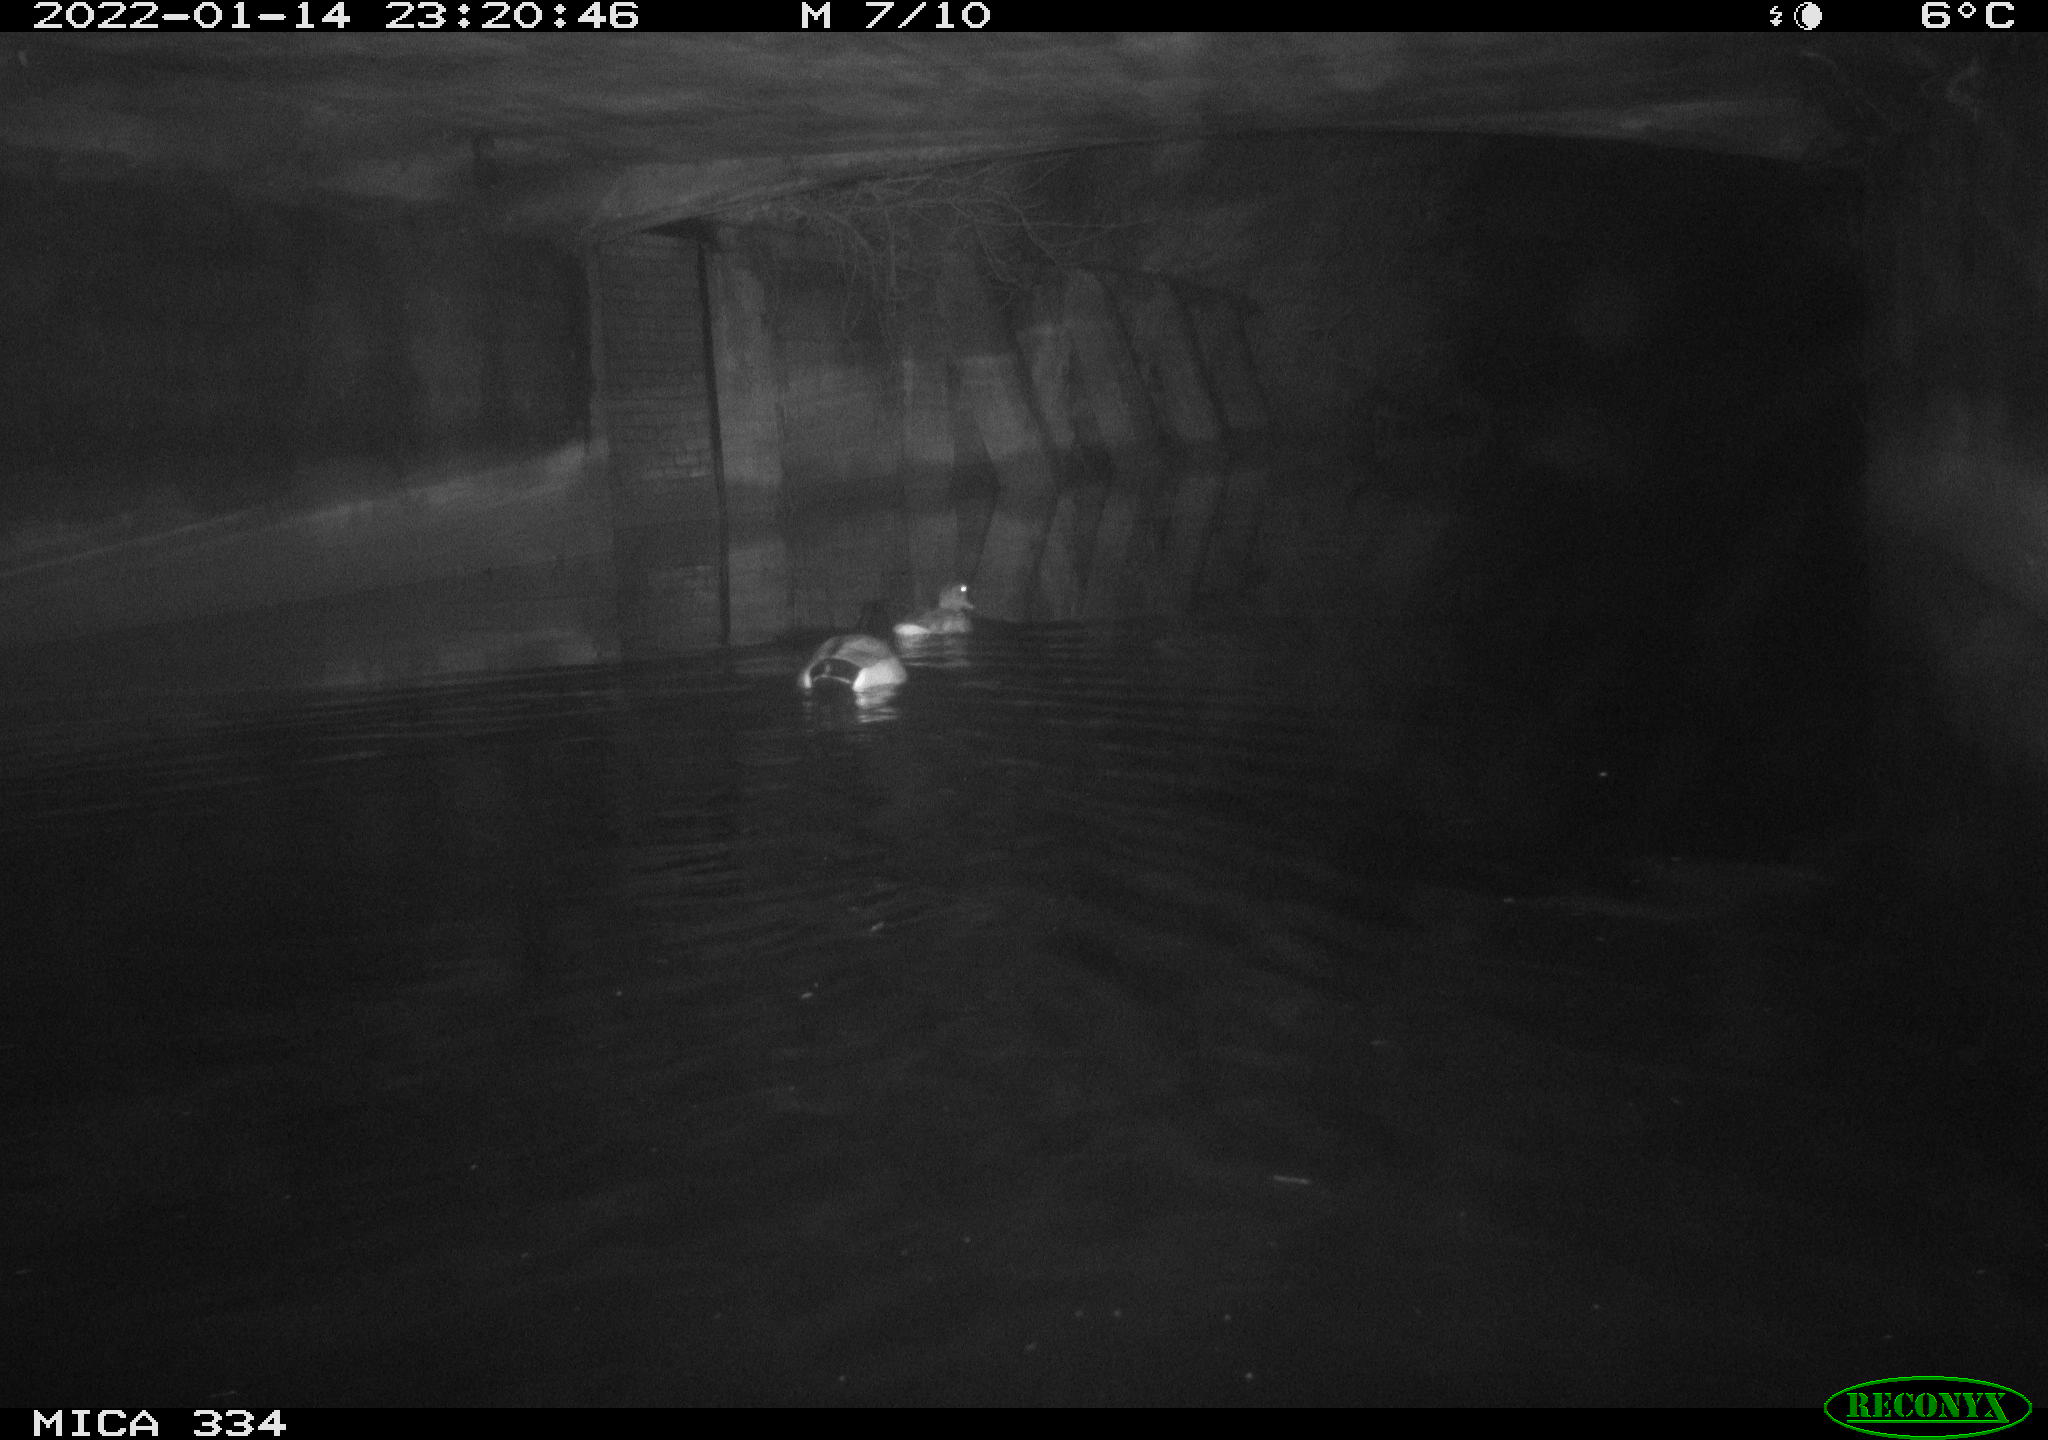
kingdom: Animalia
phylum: Chordata
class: Aves
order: Anseriformes
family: Anatidae
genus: Anas
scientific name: Anas platyrhynchos
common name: Mallard
